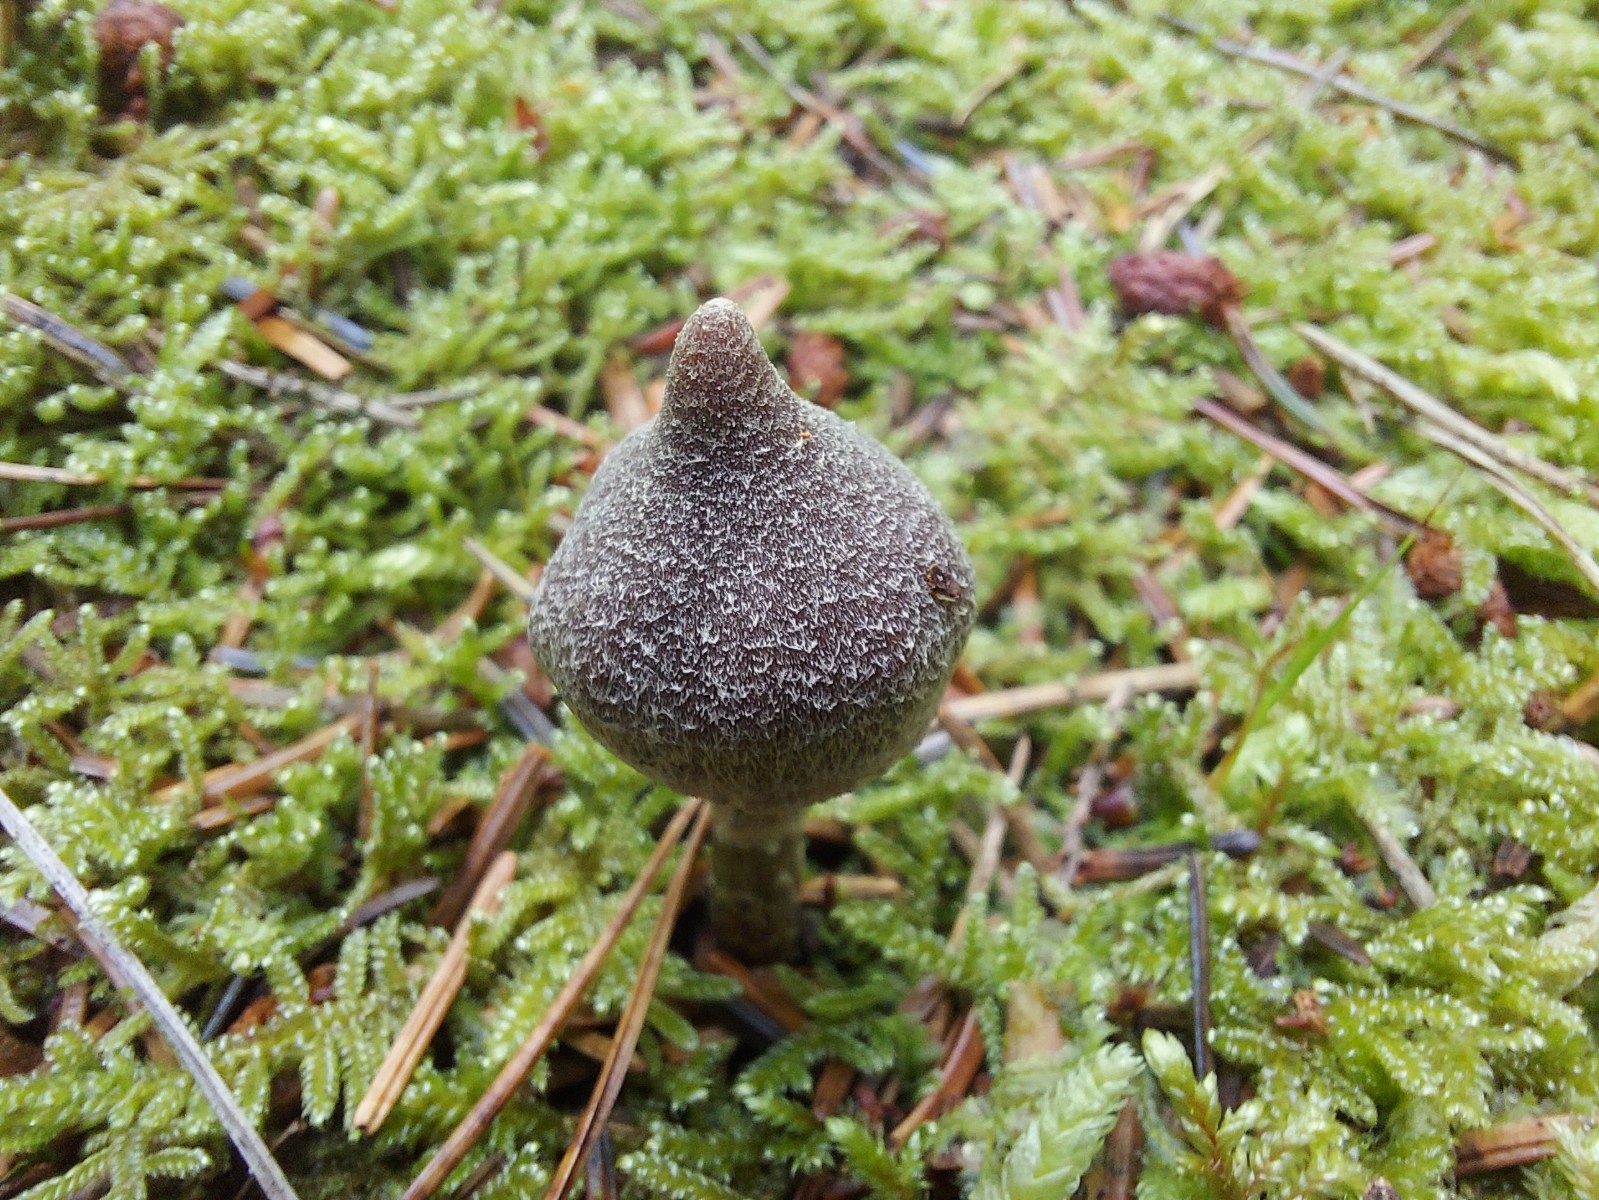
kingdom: Fungi
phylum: Basidiomycota
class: Agaricomycetes
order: Agaricales
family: Cortinariaceae
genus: Cortinarius
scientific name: Cortinarius flexipes
